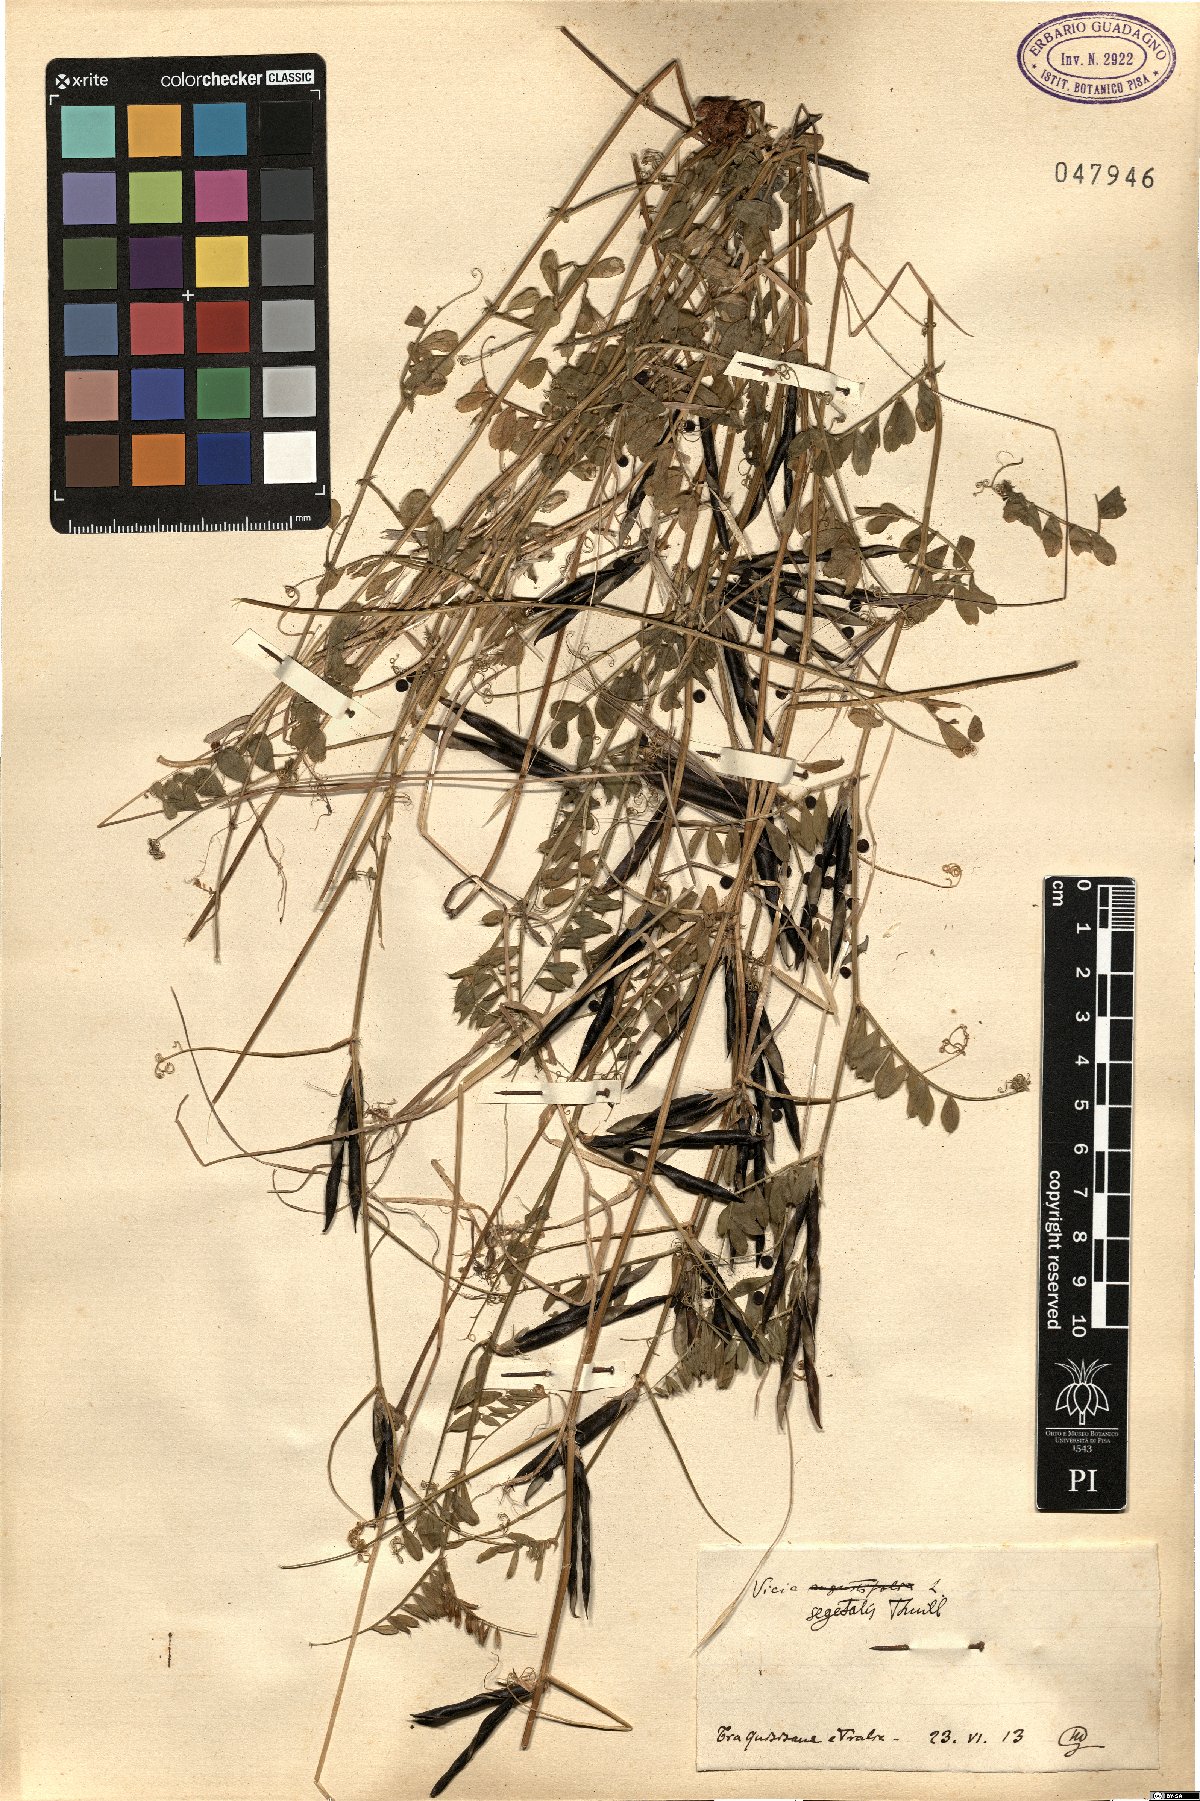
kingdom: Plantae
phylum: Tracheophyta
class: Magnoliopsida
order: Fabales
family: Fabaceae
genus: Vicia
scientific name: Vicia sativa
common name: Garden vetch
